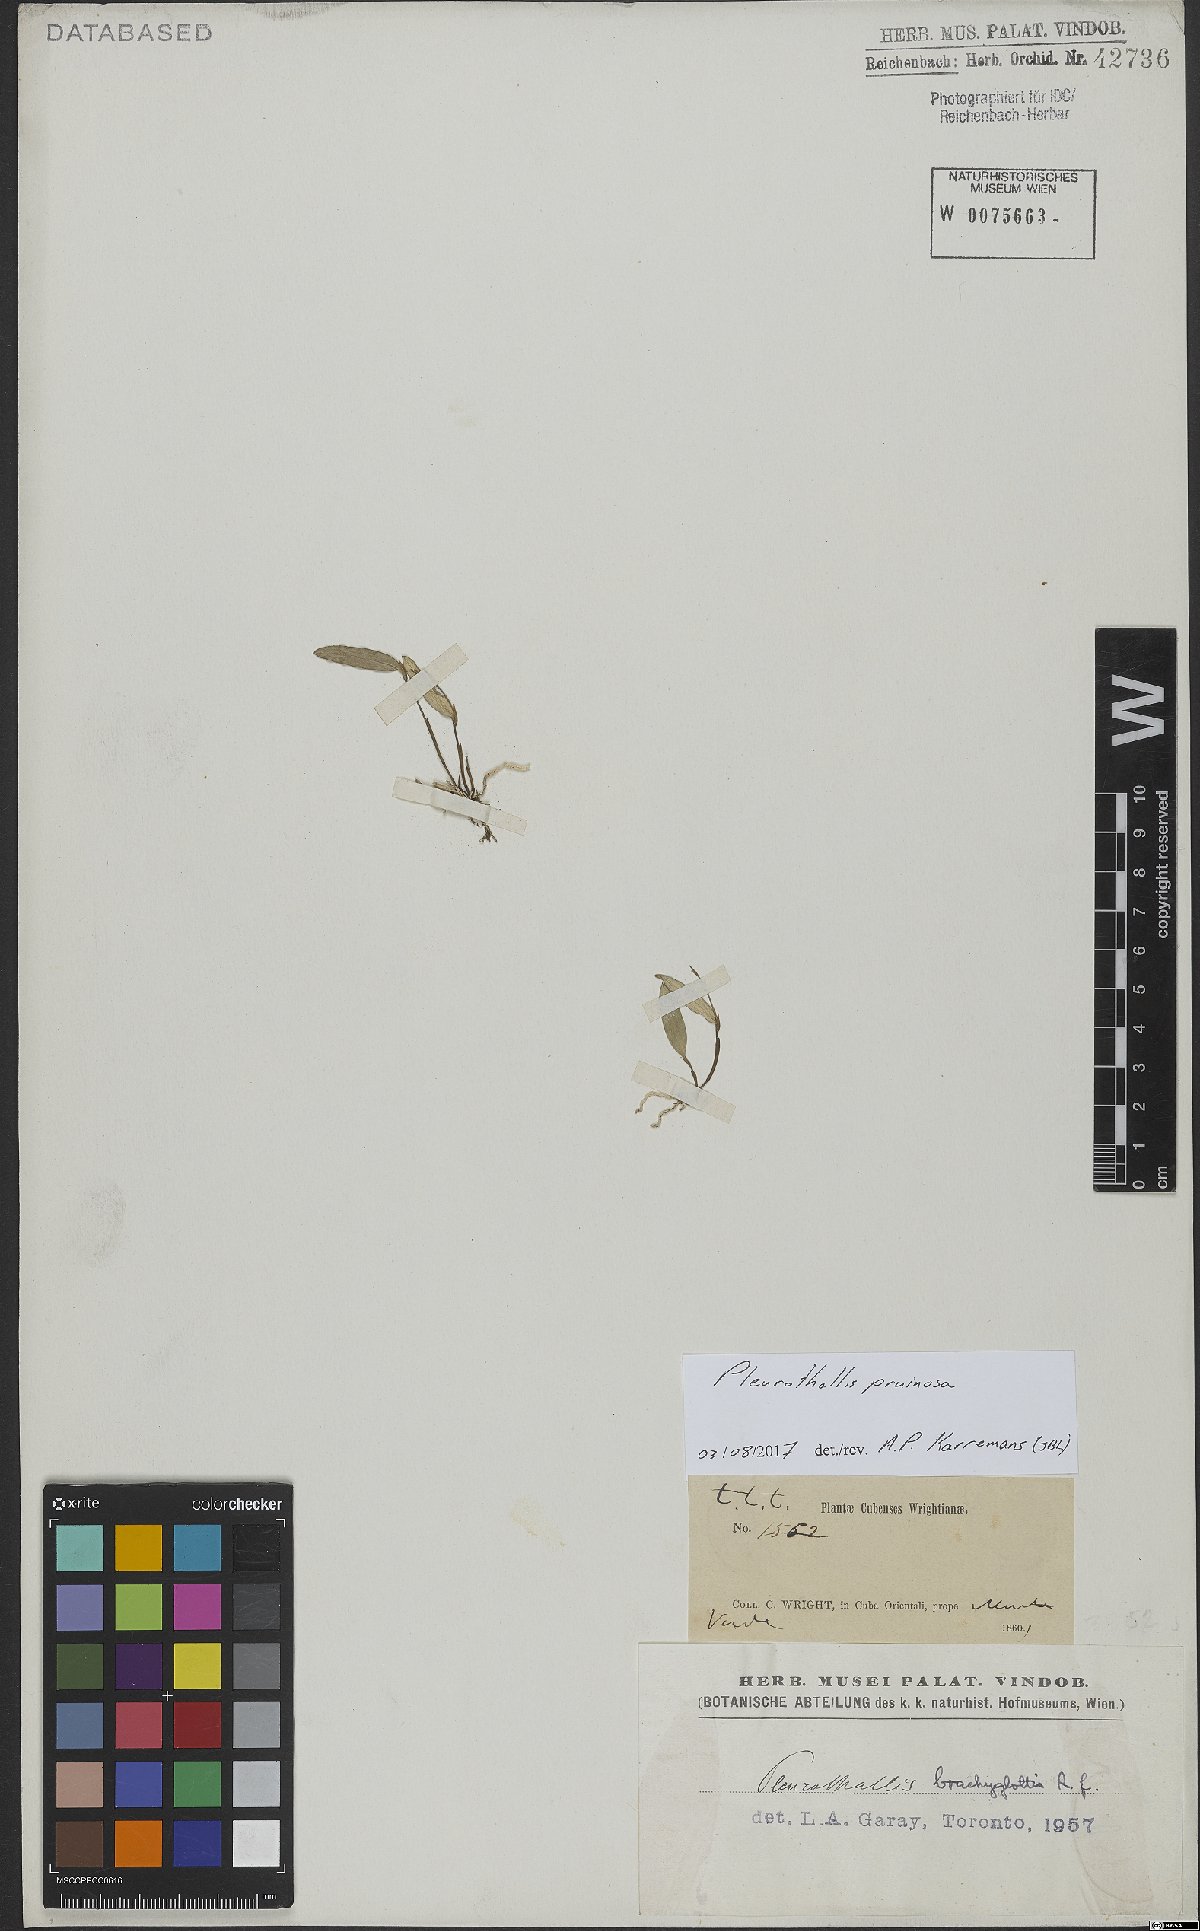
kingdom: Plantae
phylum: Tracheophyta
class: Liliopsida
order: Asparagales
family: Orchidaceae
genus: Pleurothallis
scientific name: Pleurothallis pruinosa
